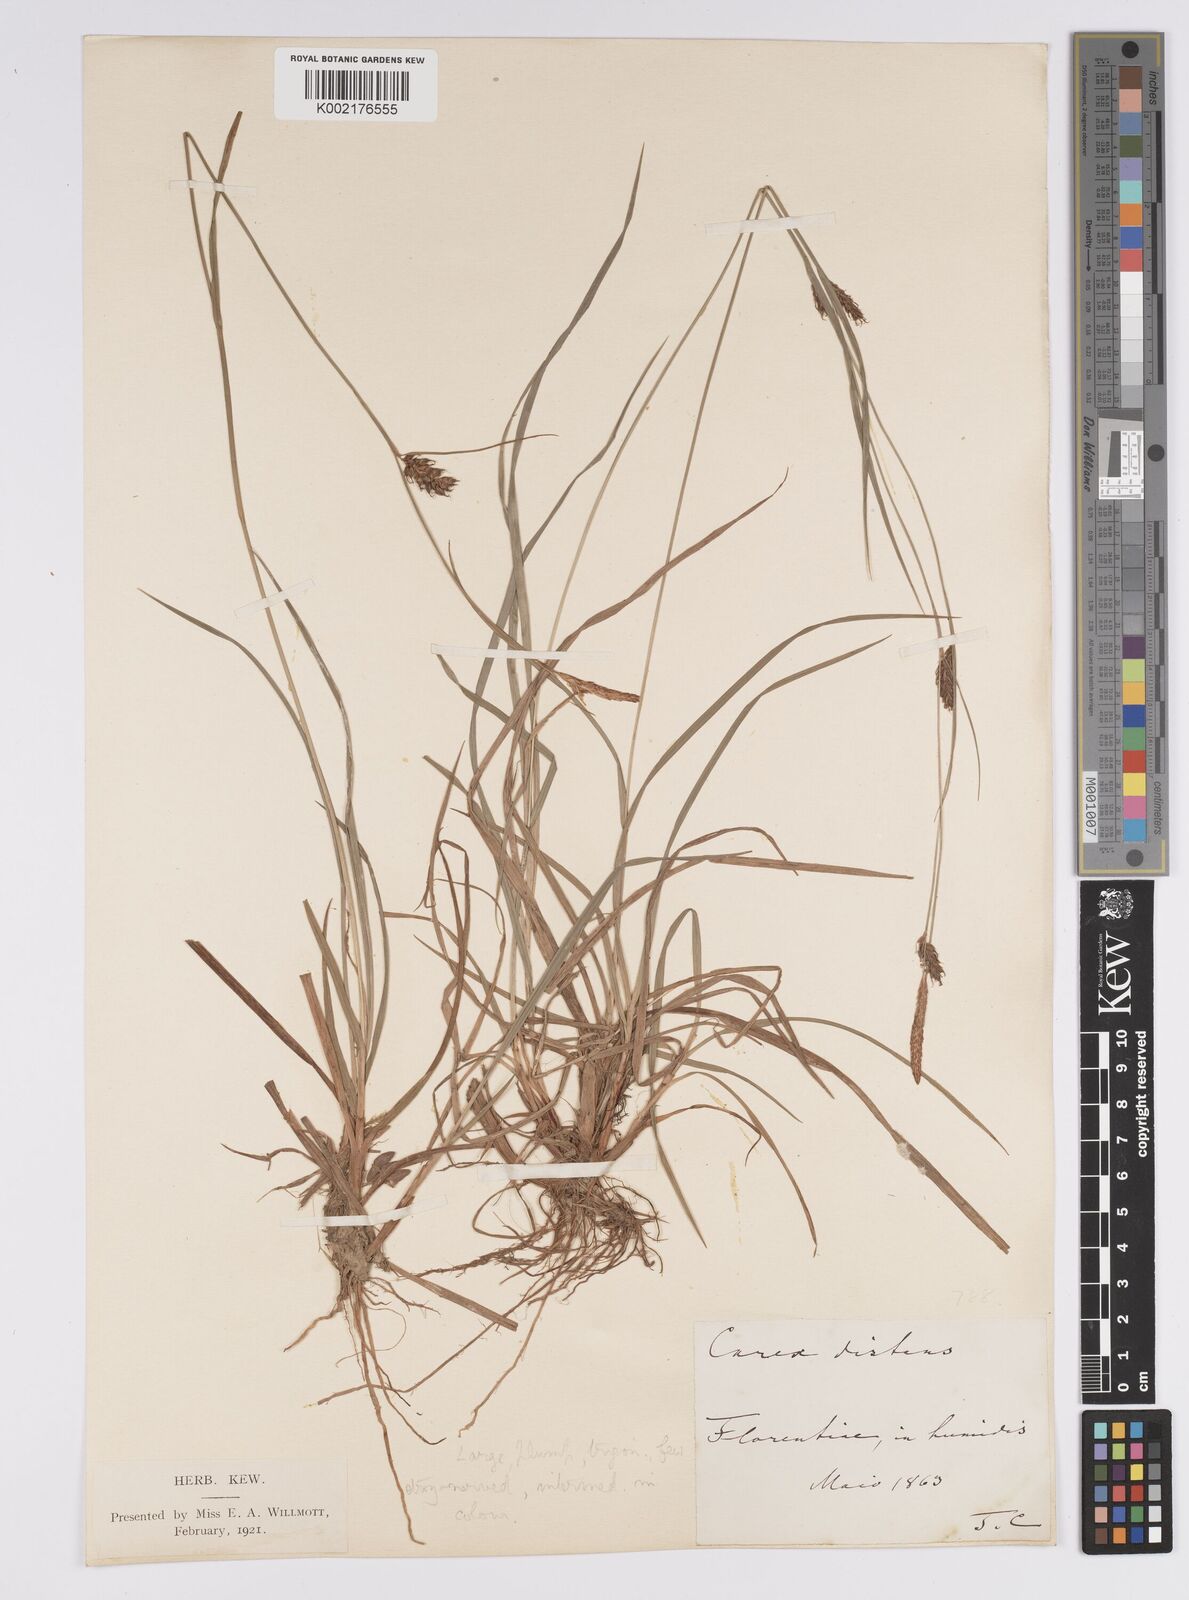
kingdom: Plantae
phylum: Tracheophyta
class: Liliopsida
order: Poales
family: Cyperaceae
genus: Carex
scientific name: Carex distans
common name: Distant sedge
